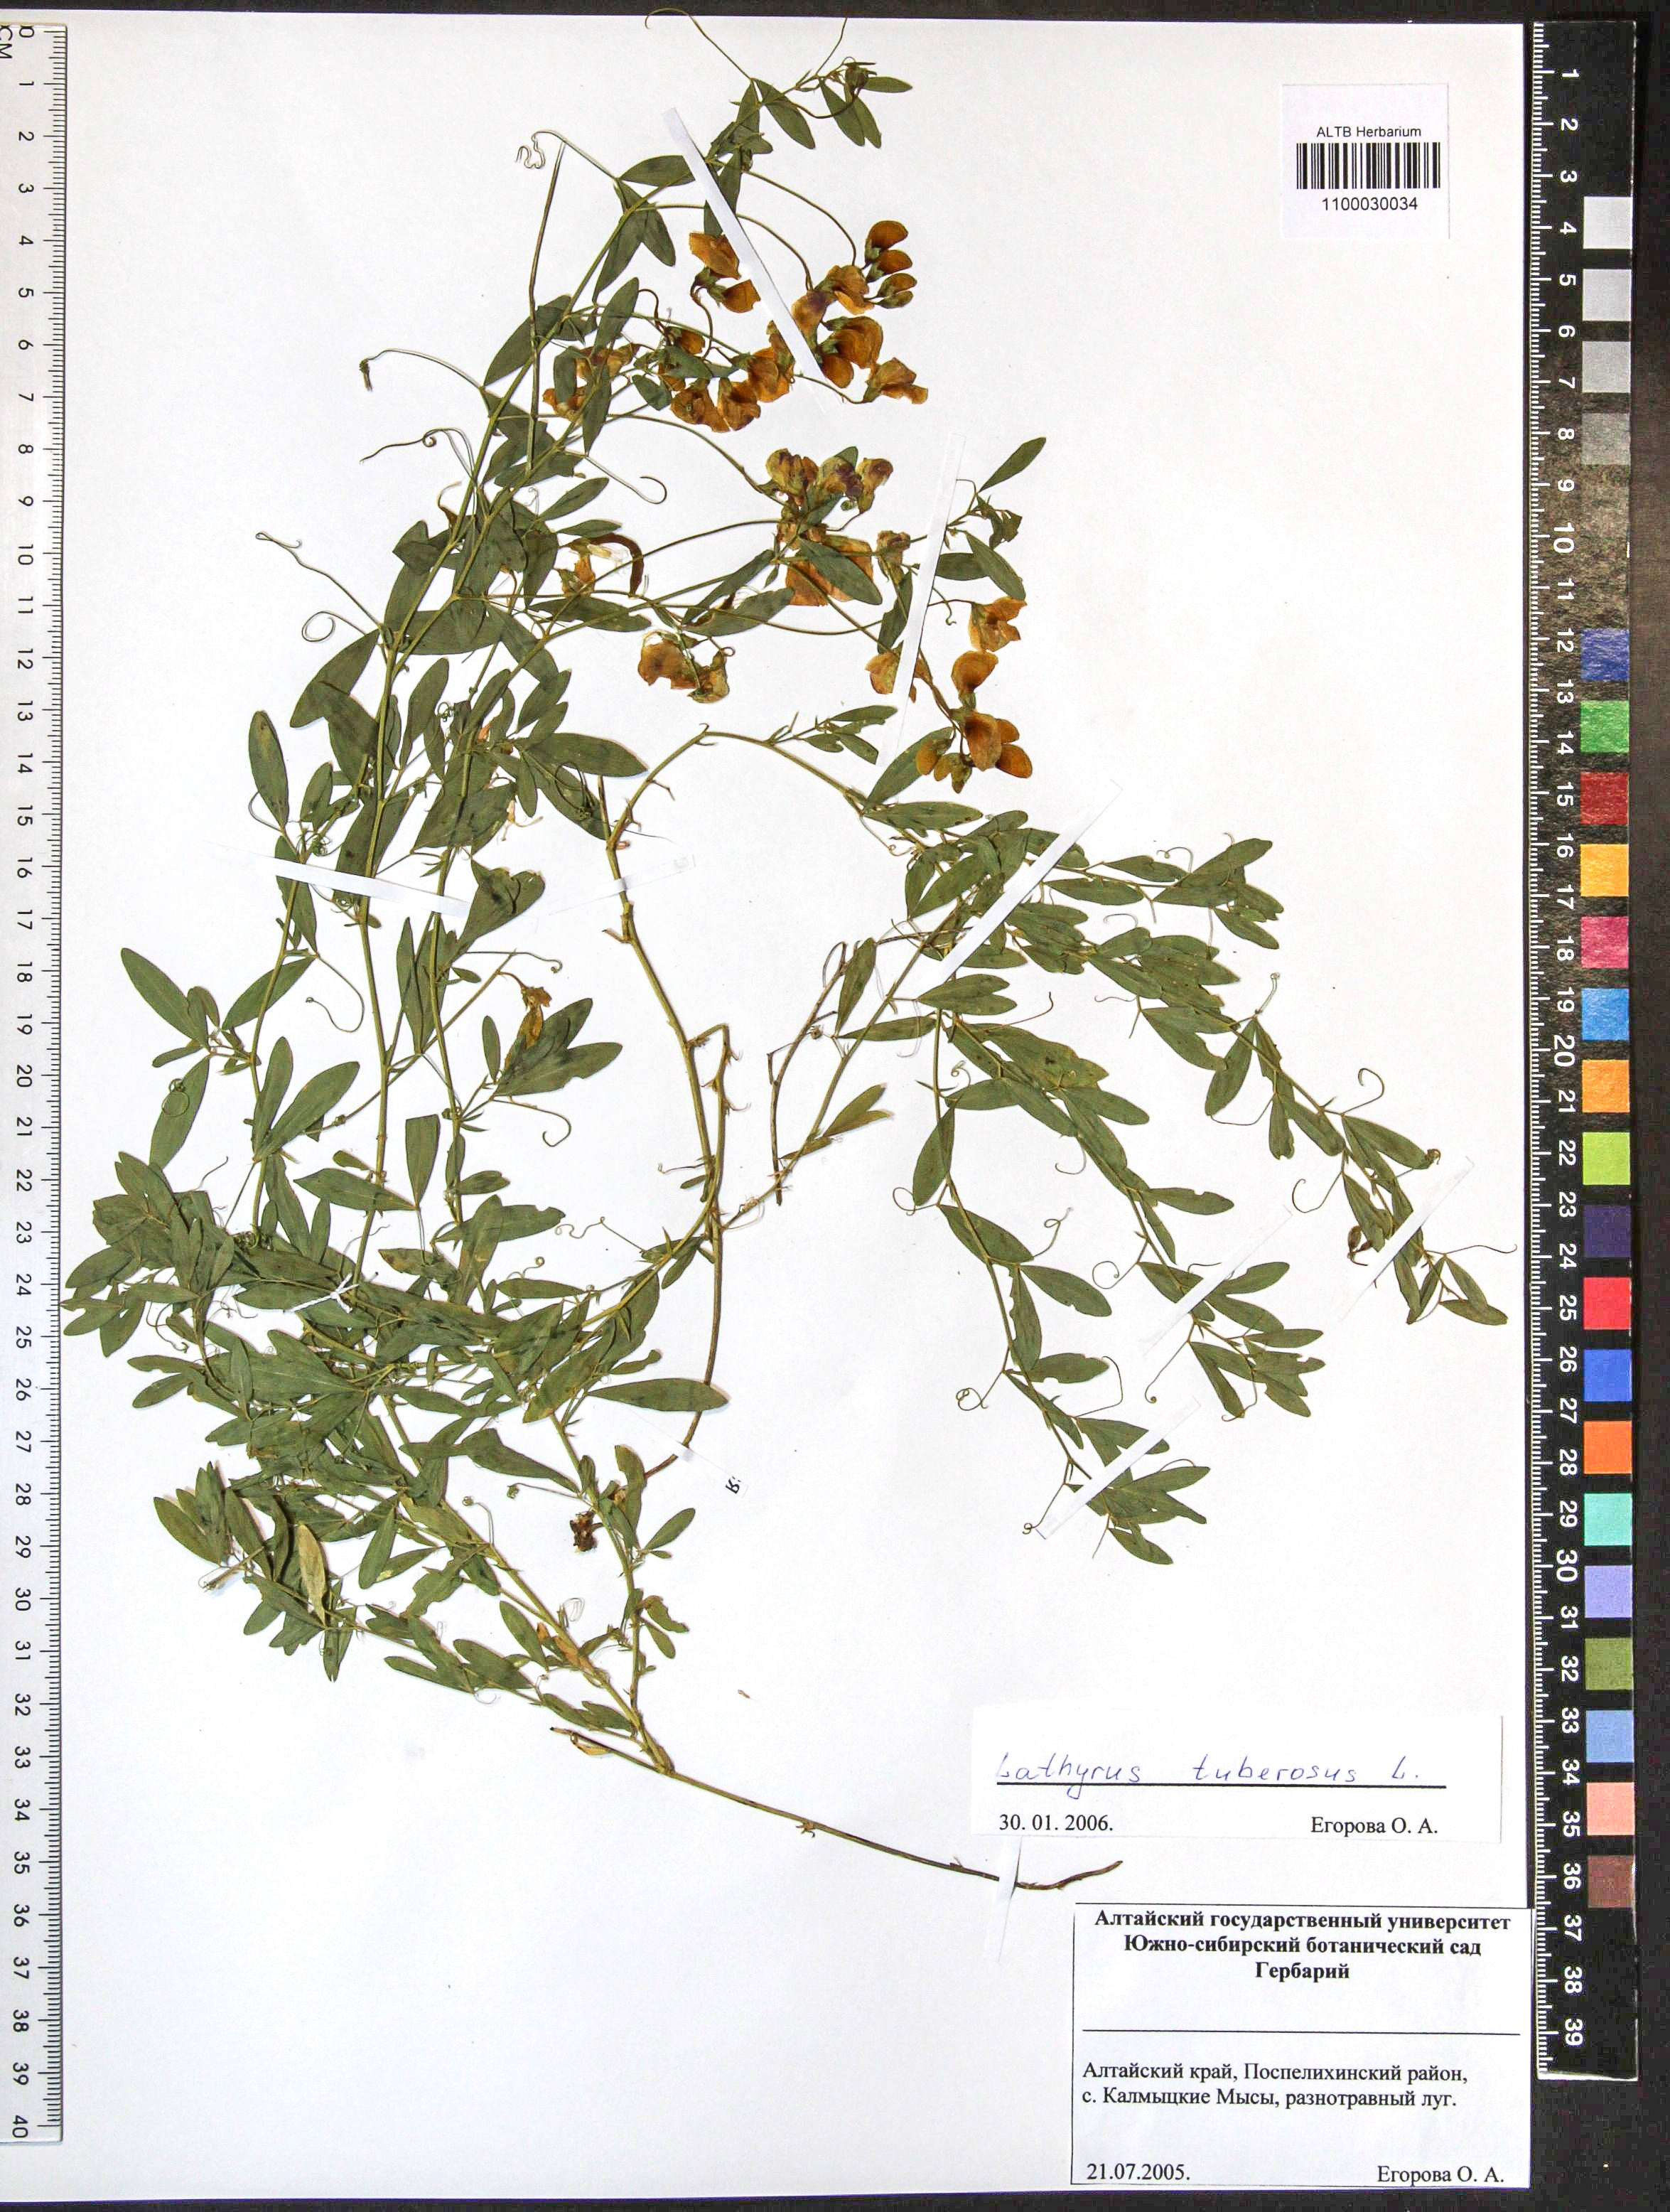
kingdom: Plantae
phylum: Tracheophyta
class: Magnoliopsida
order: Fabales
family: Fabaceae
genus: Lathyrus
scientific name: Lathyrus tuberosus
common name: Tuberous pea
